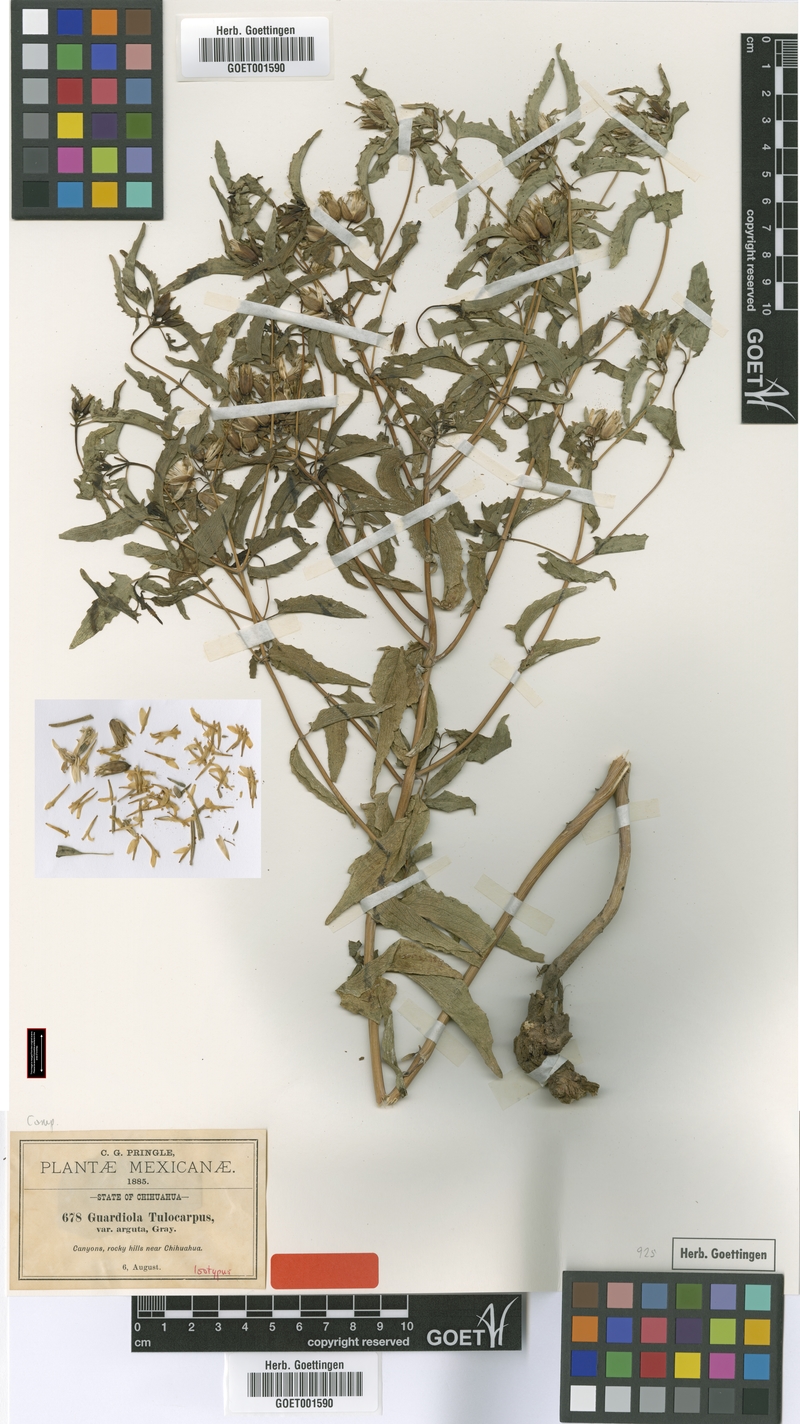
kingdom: Plantae
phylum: Tracheophyta
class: Magnoliopsida
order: Asterales
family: Asteraceae
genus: Guardiola
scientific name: Guardiola arguta
